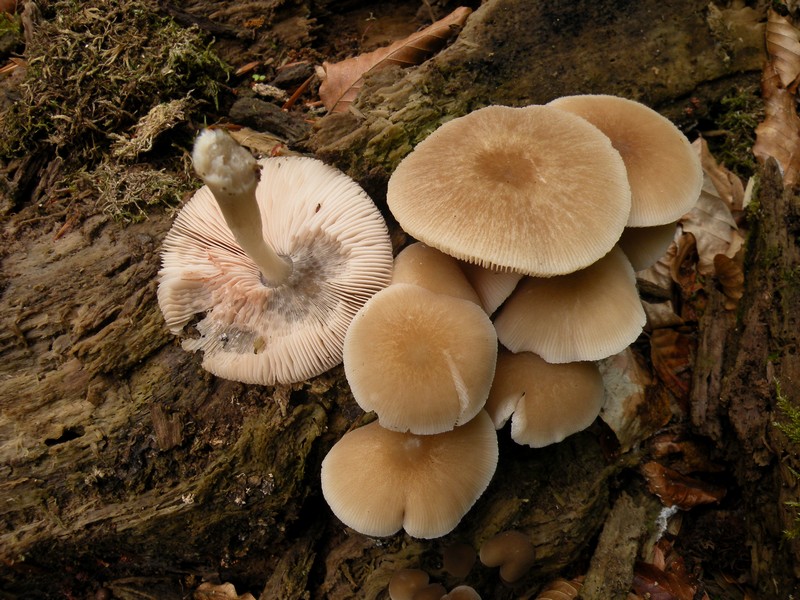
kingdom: Fungi
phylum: Basidiomycota
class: Agaricomycetes
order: Agaricales
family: Pluteaceae
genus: Pluteus
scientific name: Pluteus semibulbosus
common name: knoldet skærmhat
